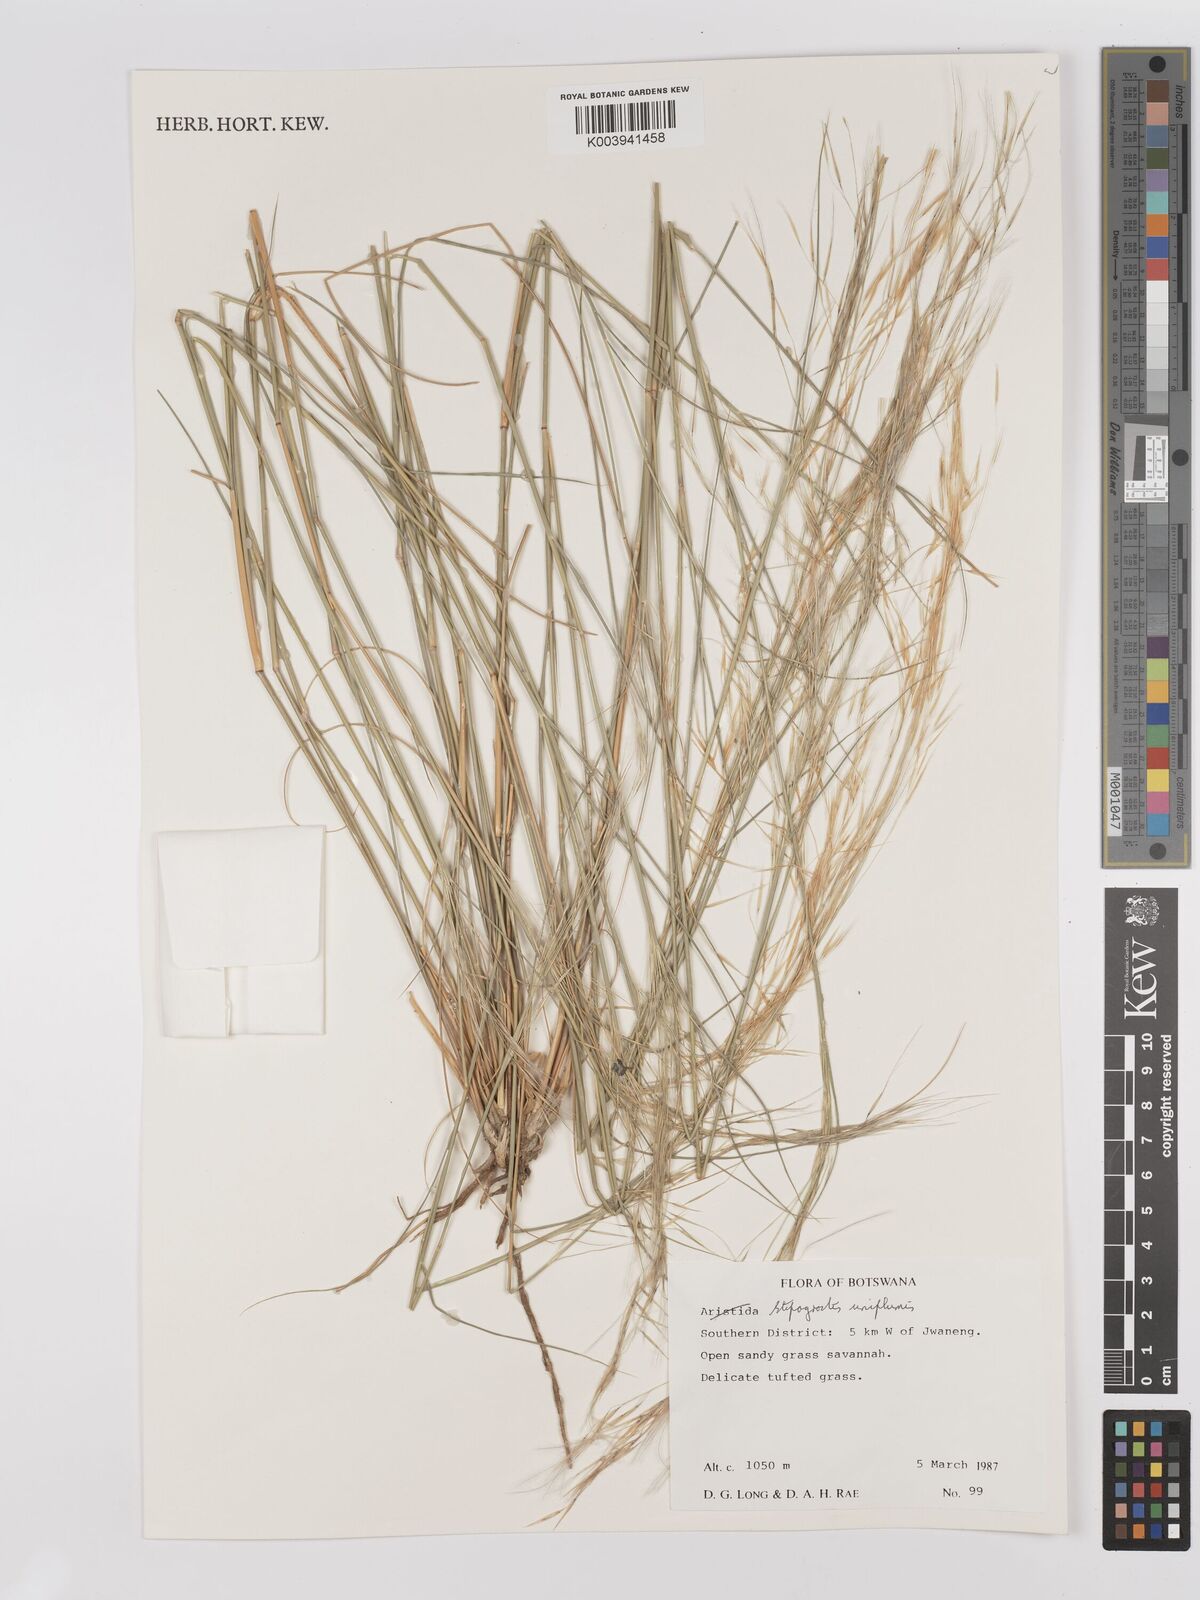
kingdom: Plantae
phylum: Tracheophyta
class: Liliopsida
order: Poales
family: Poaceae
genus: Stipagrostis
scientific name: Stipagrostis uniplumis
